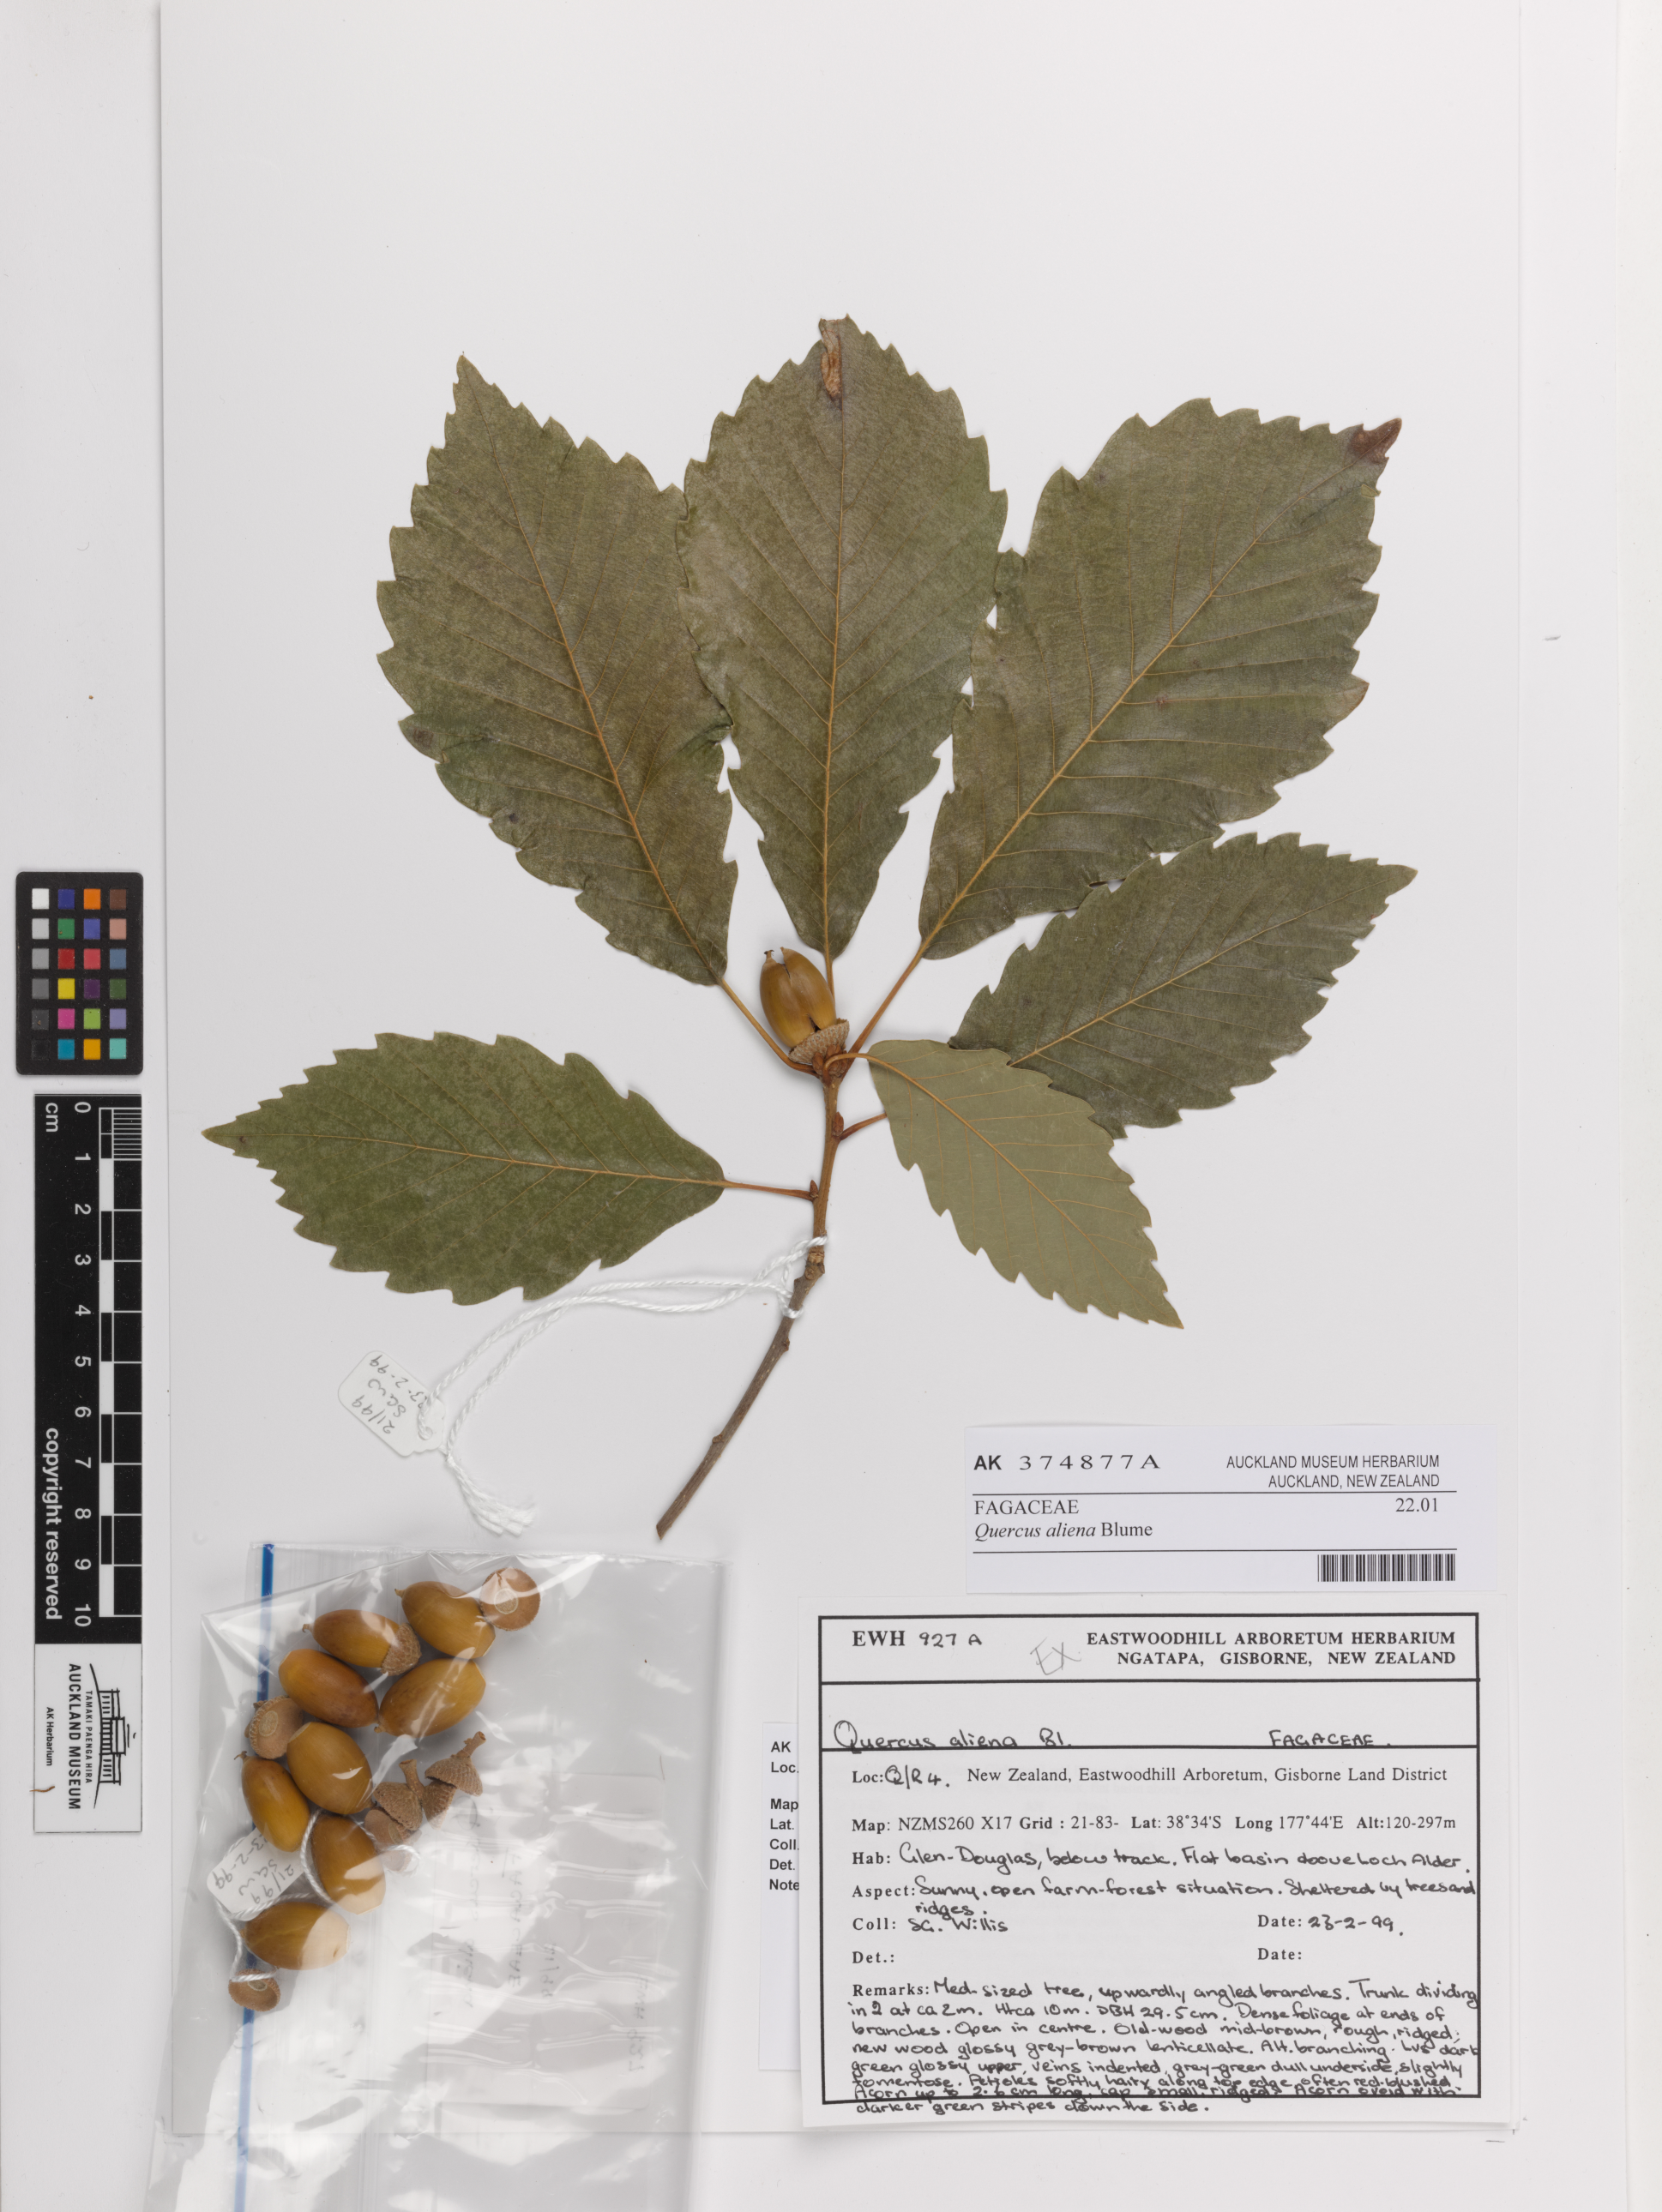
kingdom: Plantae
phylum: Tracheophyta
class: Magnoliopsida
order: Fagales
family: Fagaceae
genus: Quercus
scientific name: Quercus aliena
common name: Oriental white oak
